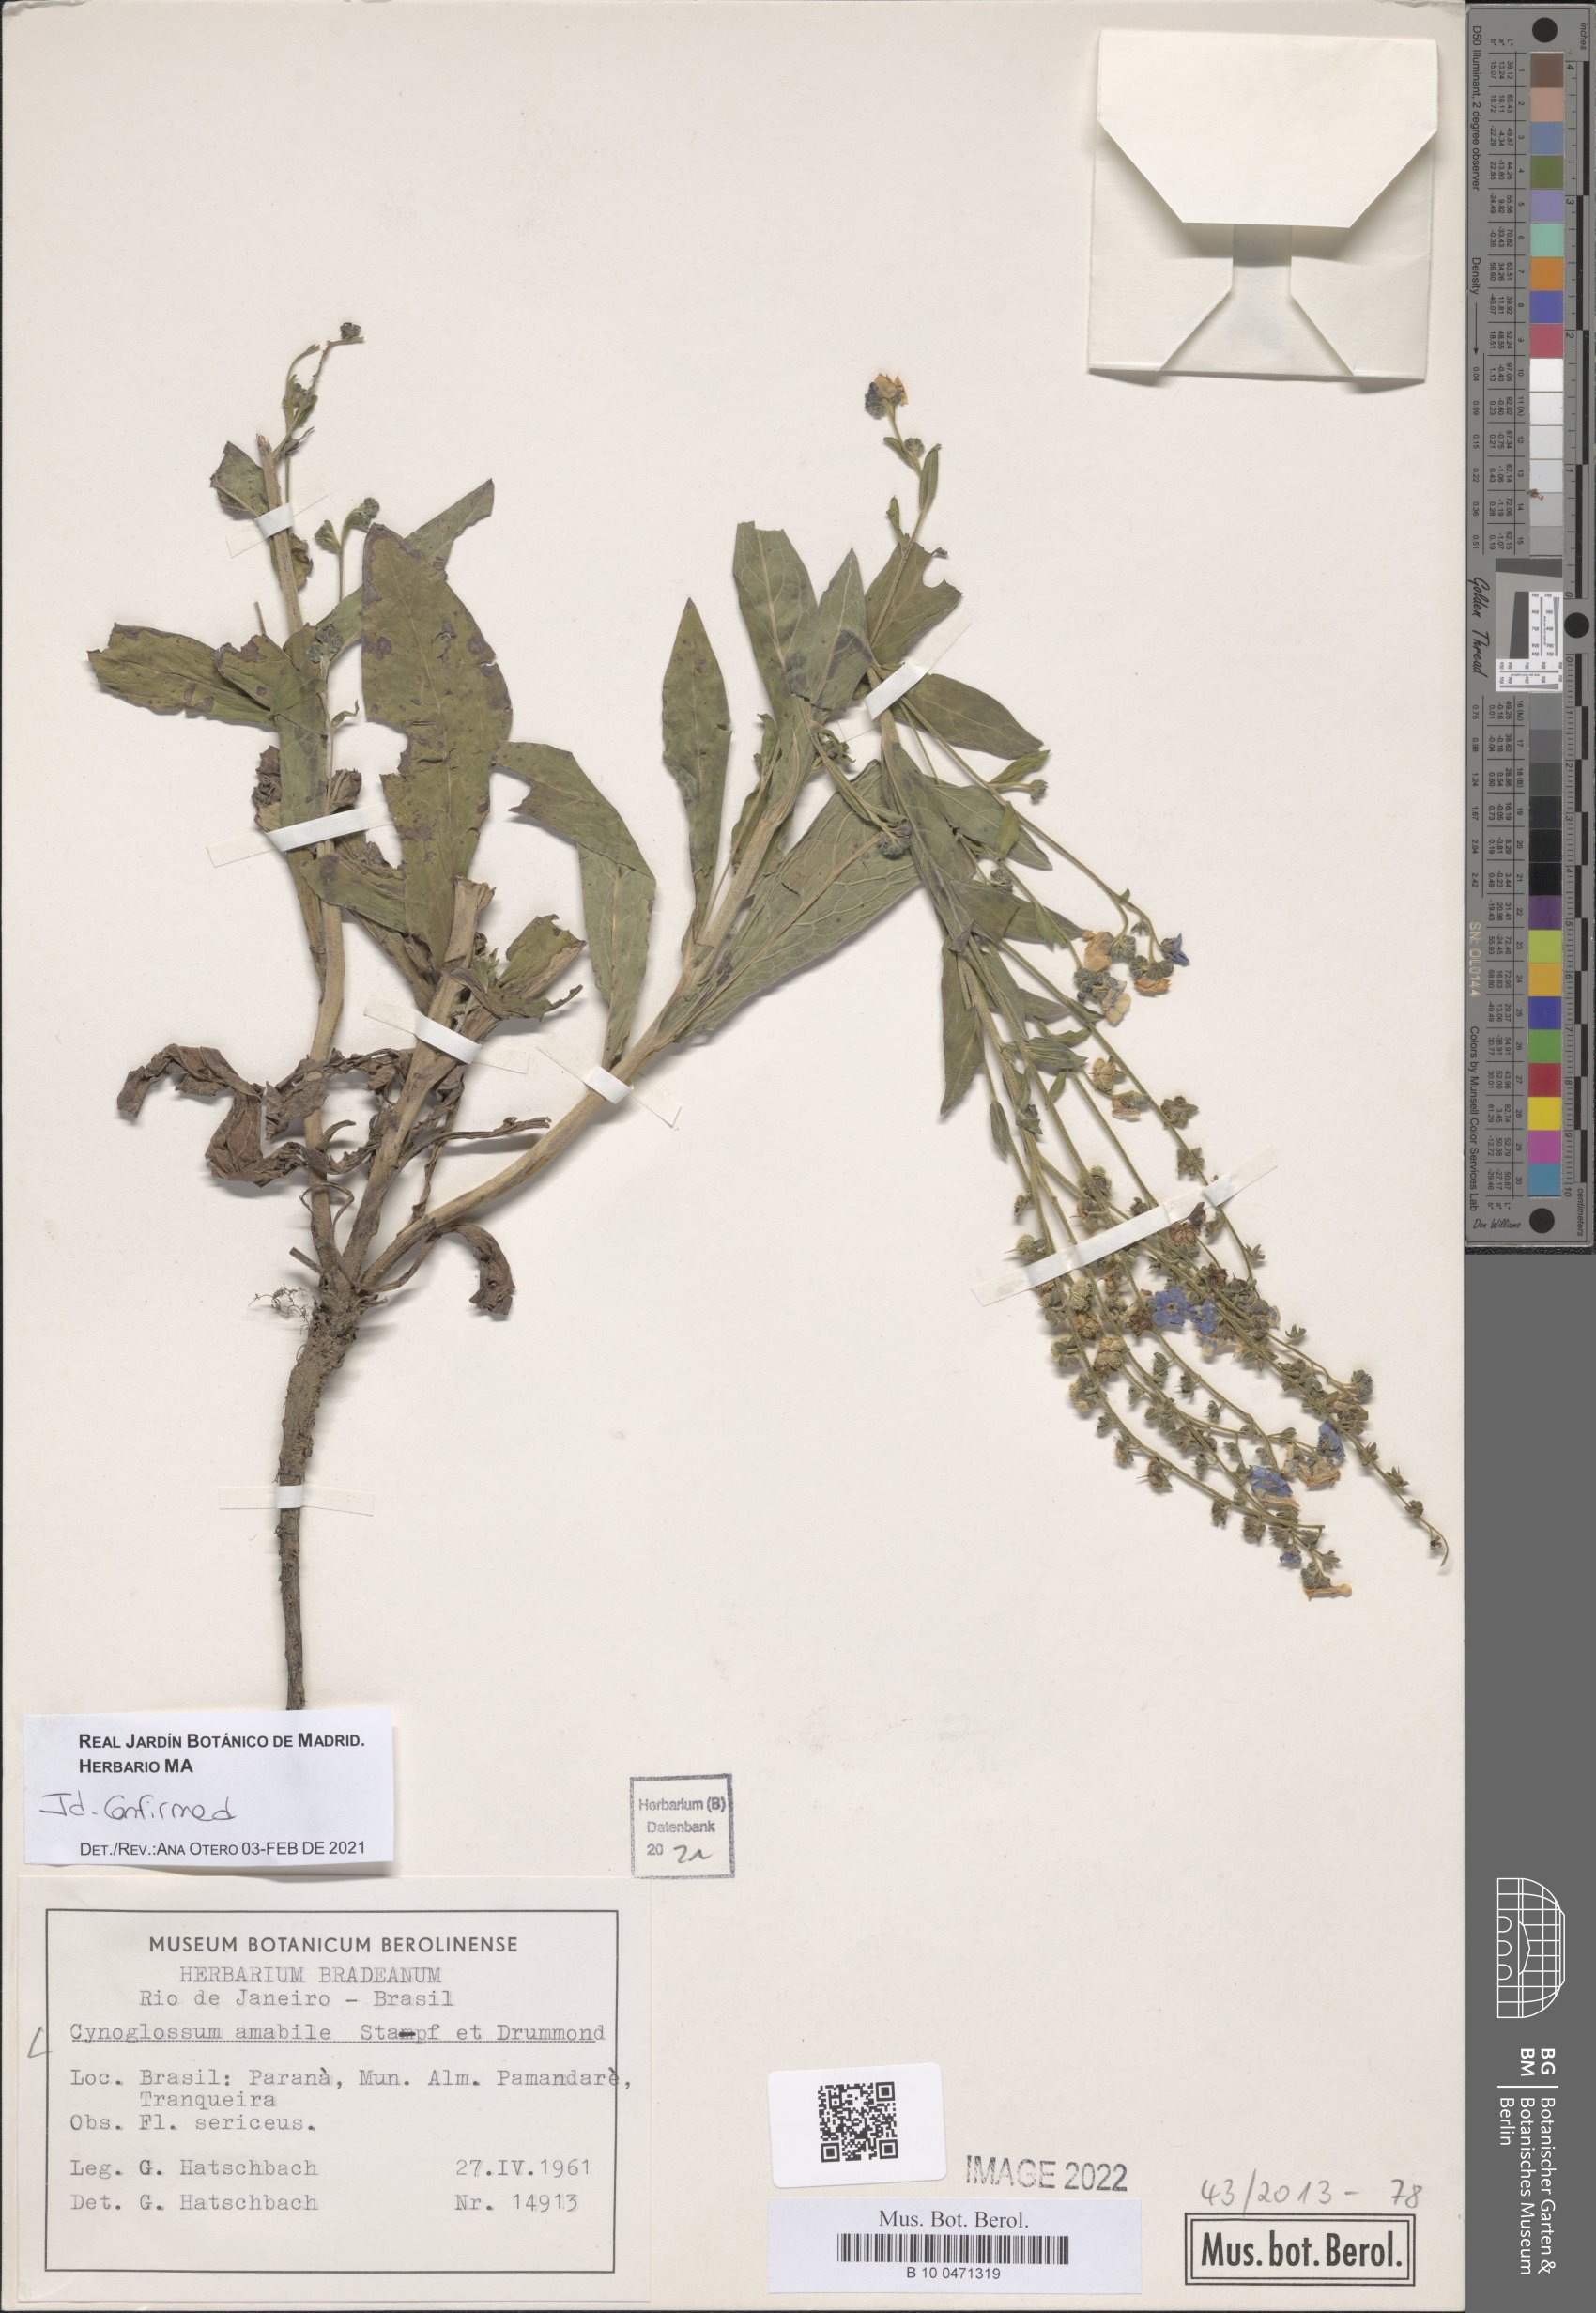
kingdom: Plantae
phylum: Tracheophyta
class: Magnoliopsida
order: Boraginales
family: Boraginaceae
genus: Cynoglossum
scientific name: Cynoglossum amabile
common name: Chinese hound's tongue
